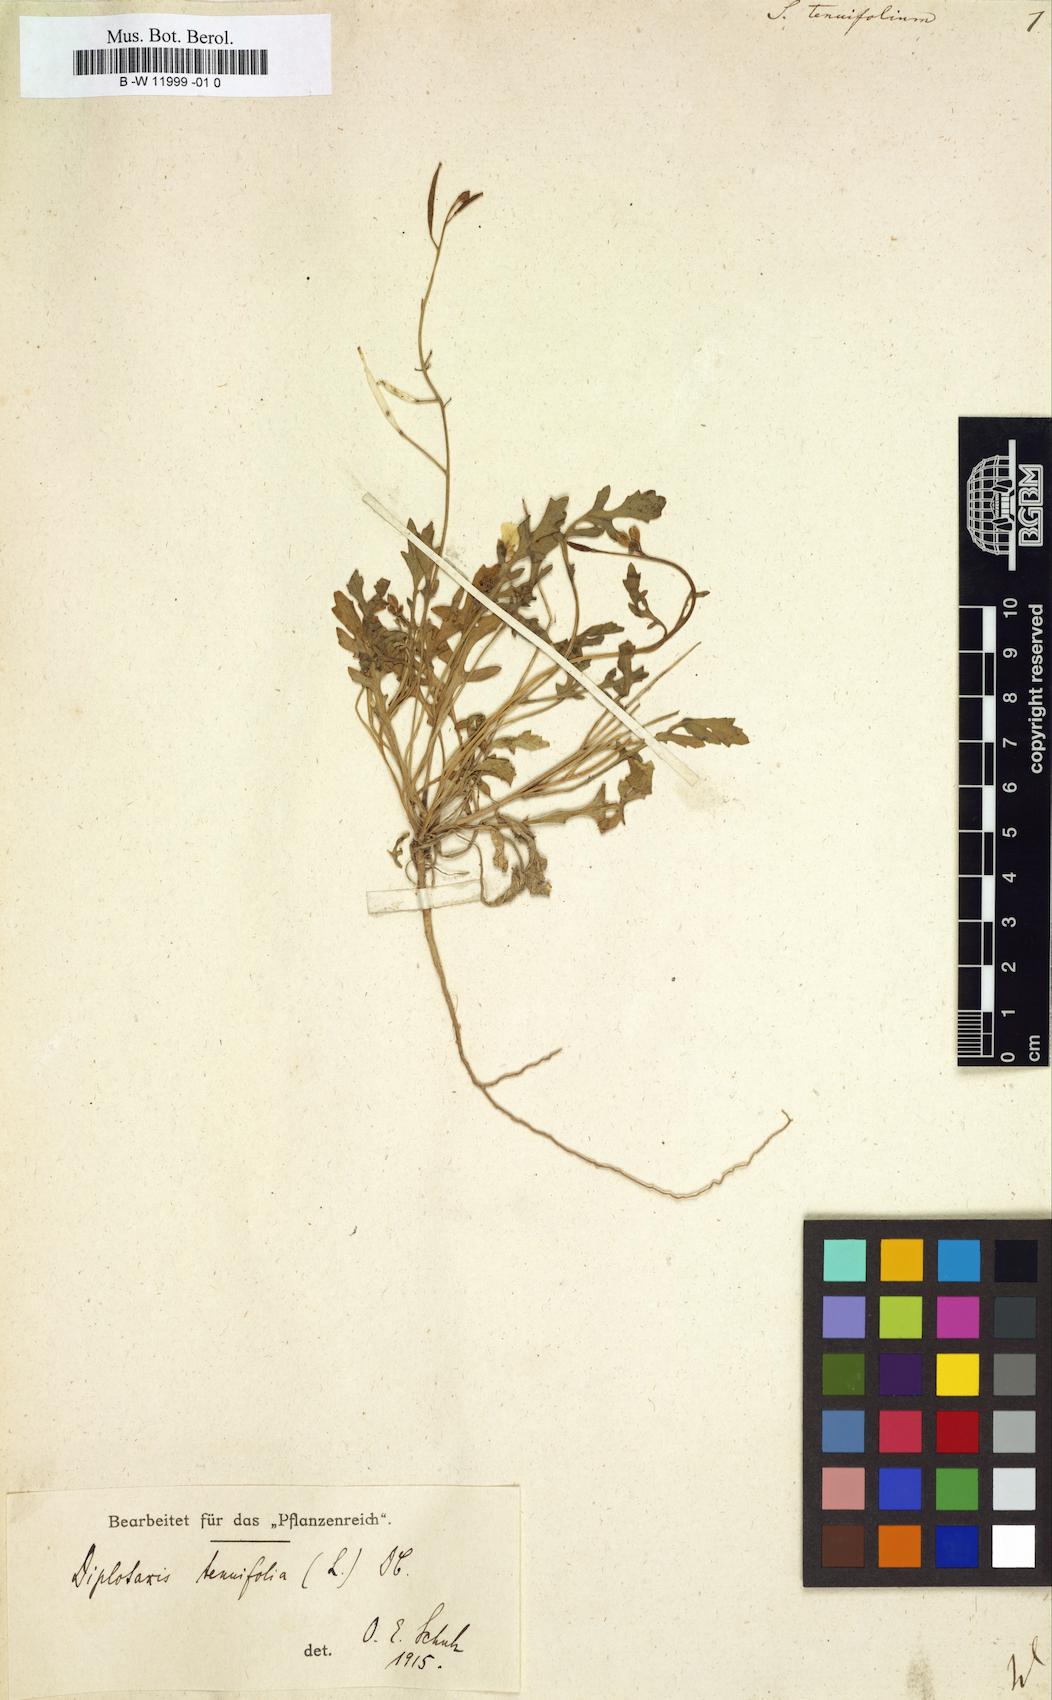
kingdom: Plantae
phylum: Tracheophyta
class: Magnoliopsida
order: Brassicales
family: Brassicaceae
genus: Sisymbrium
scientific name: Sisymbrium tenuifolium
